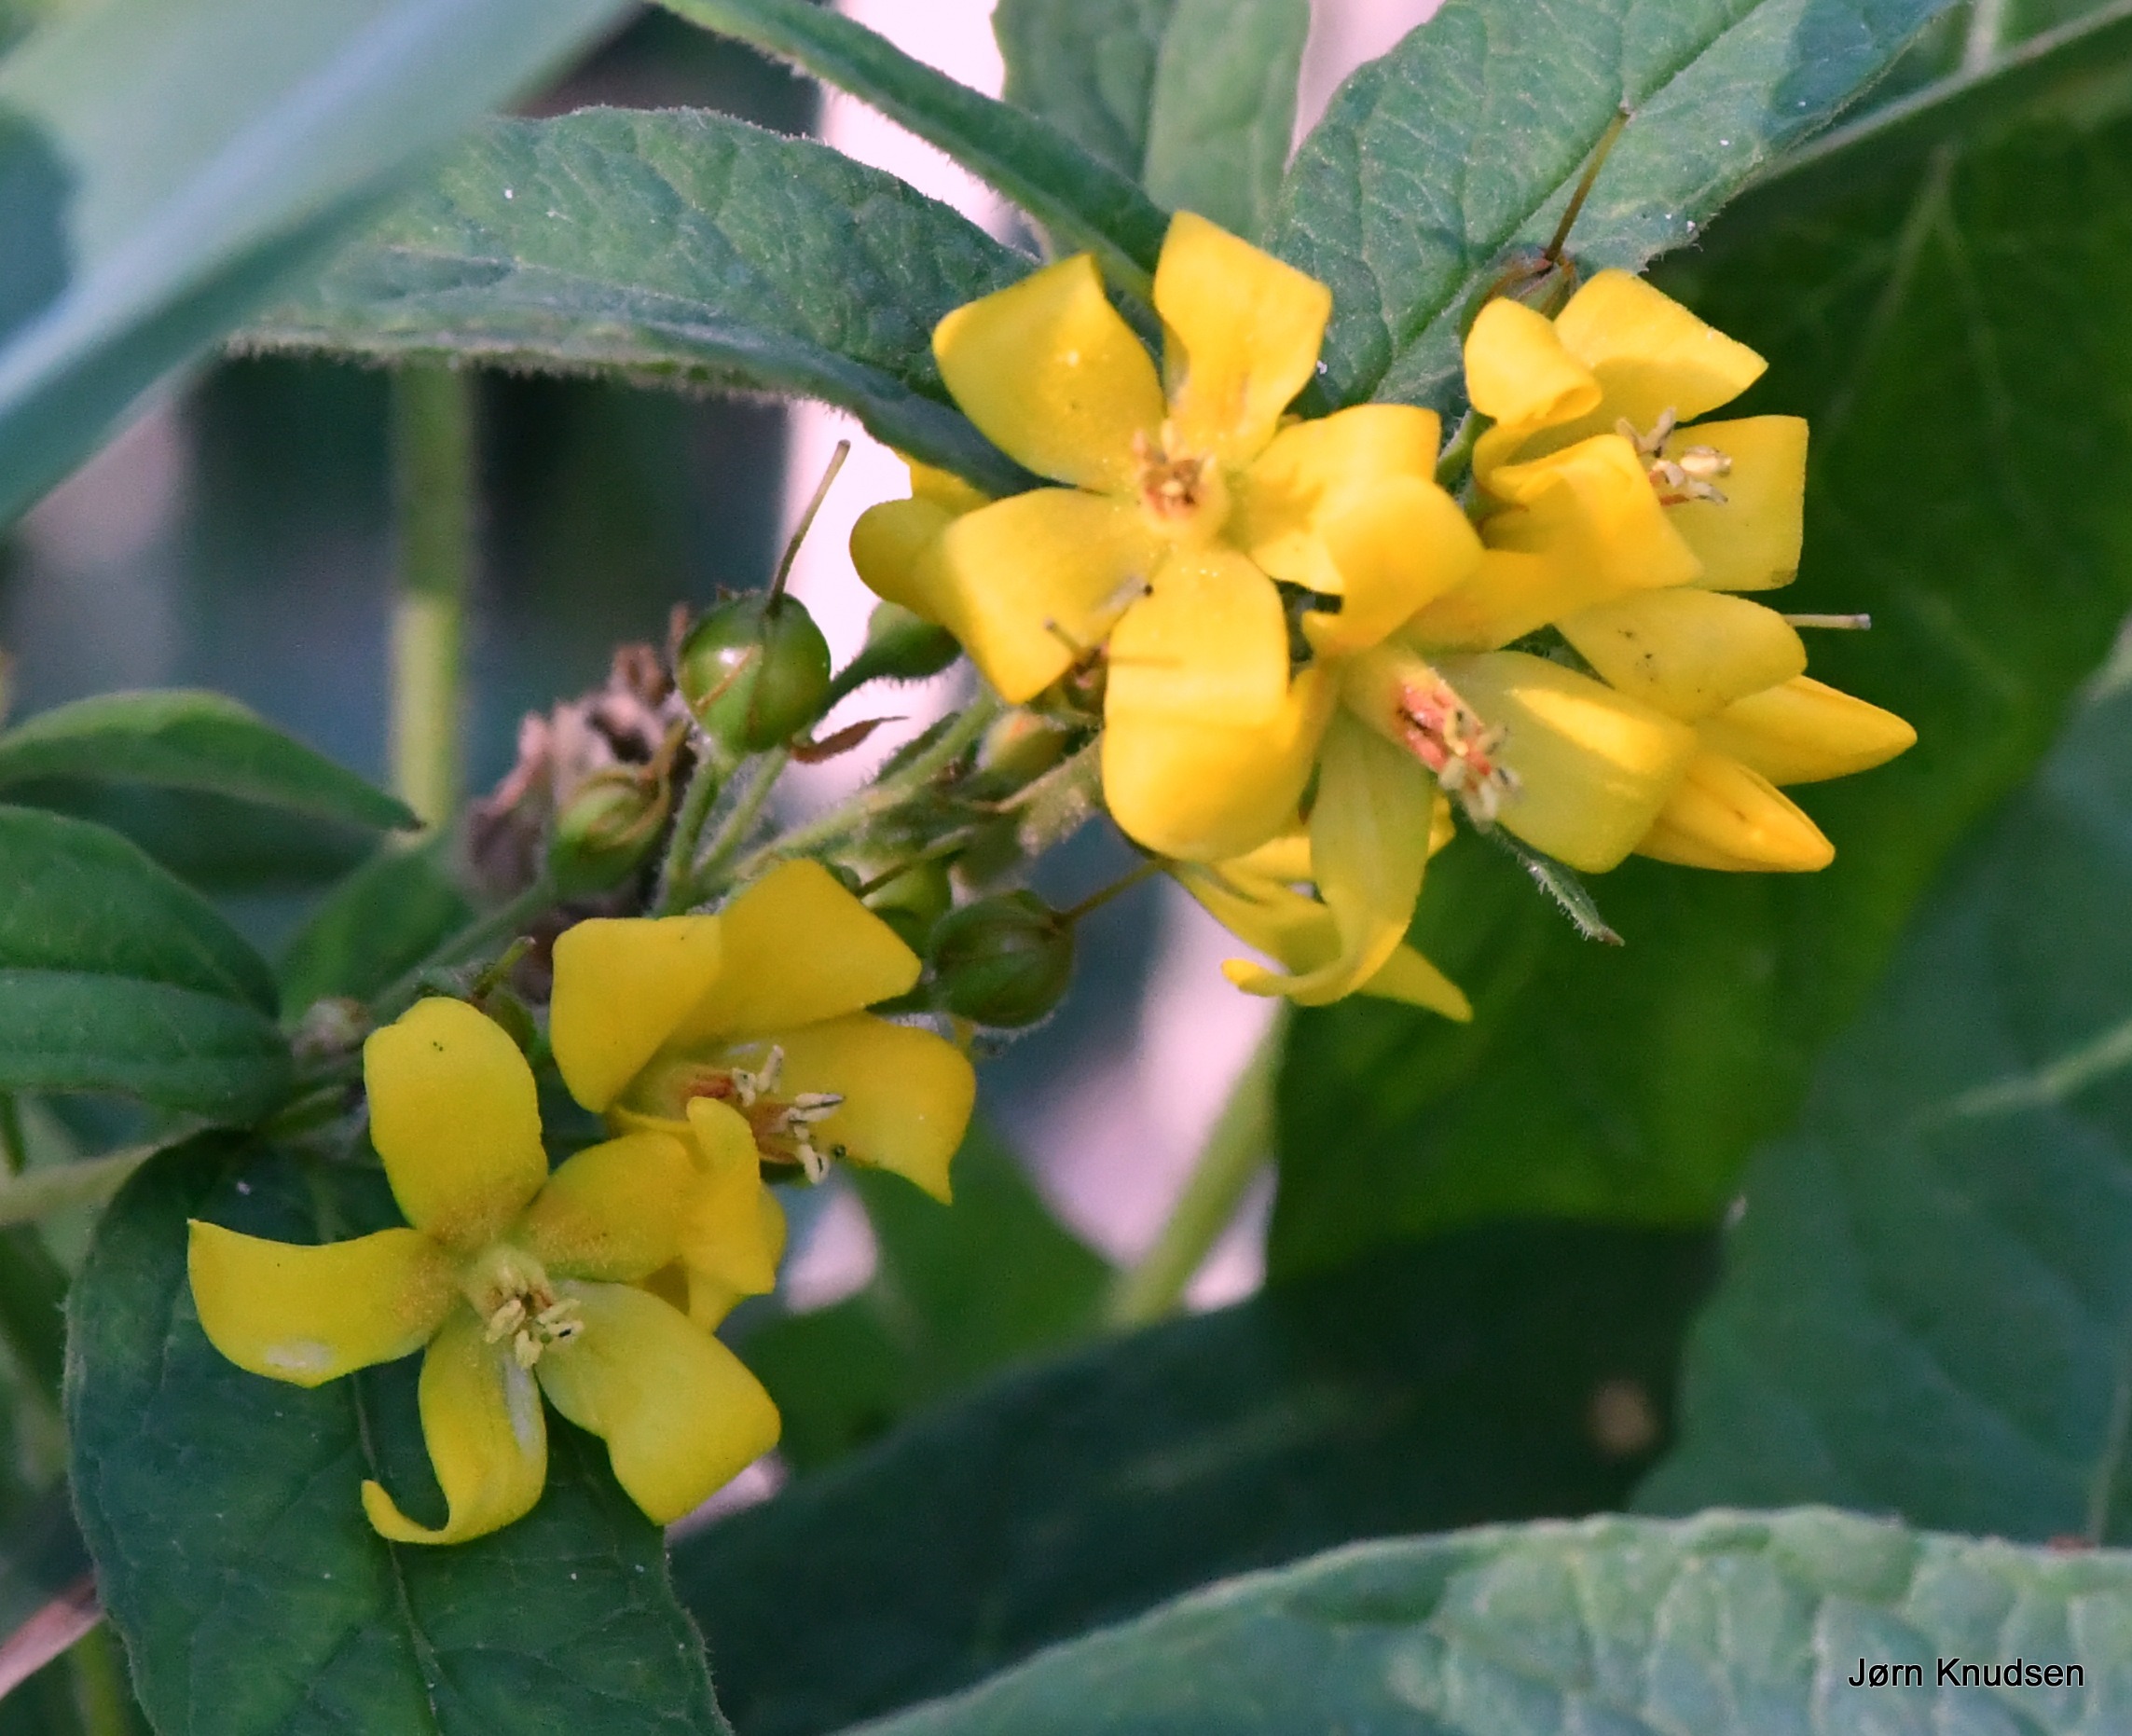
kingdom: Plantae
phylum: Tracheophyta
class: Magnoliopsida
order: Ericales
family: Primulaceae
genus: Lysimachia
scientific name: Lysimachia vulgaris
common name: Almindelig fredløs
